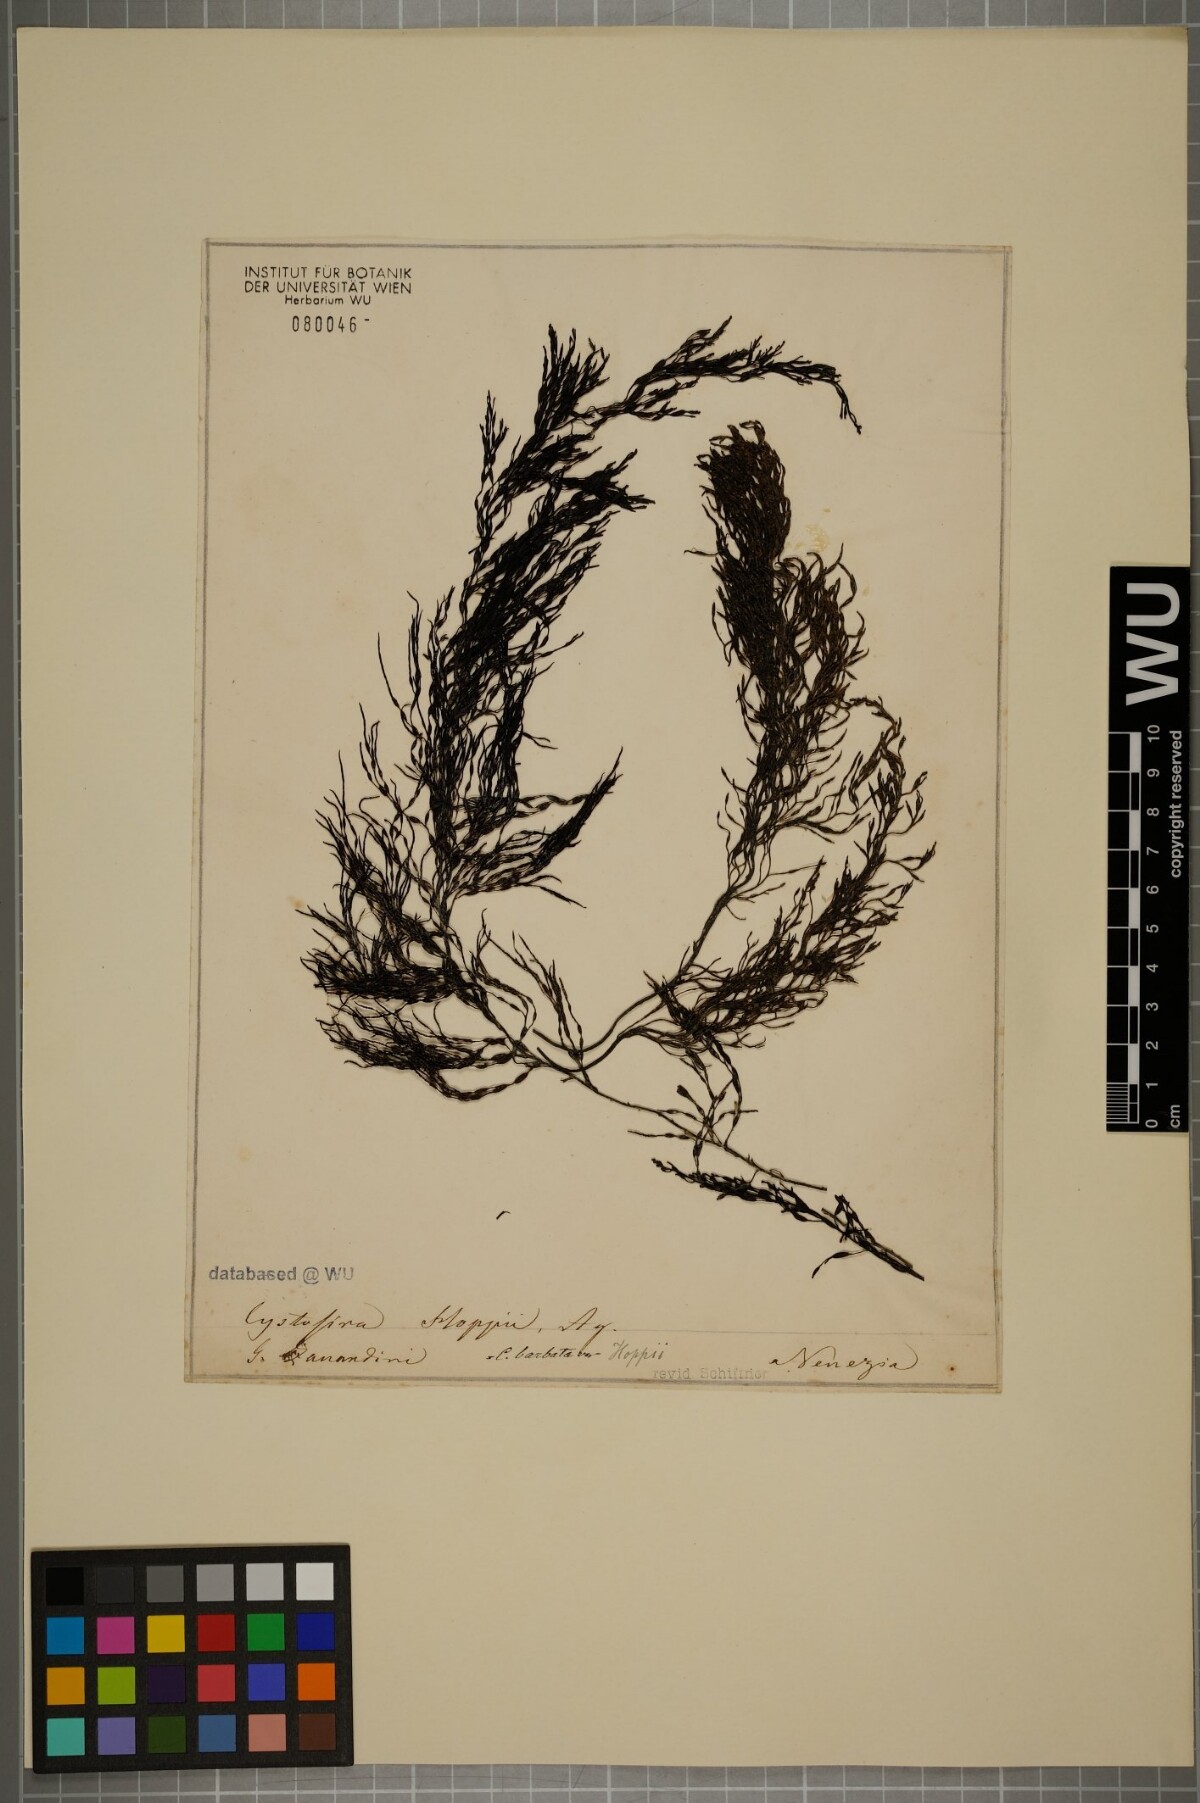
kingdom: Chromista
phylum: Ochrophyta
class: Phaeophyceae
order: Fucales
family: Sargassaceae
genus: Cystoseira
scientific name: Cystoseira Gongolaria barbata
